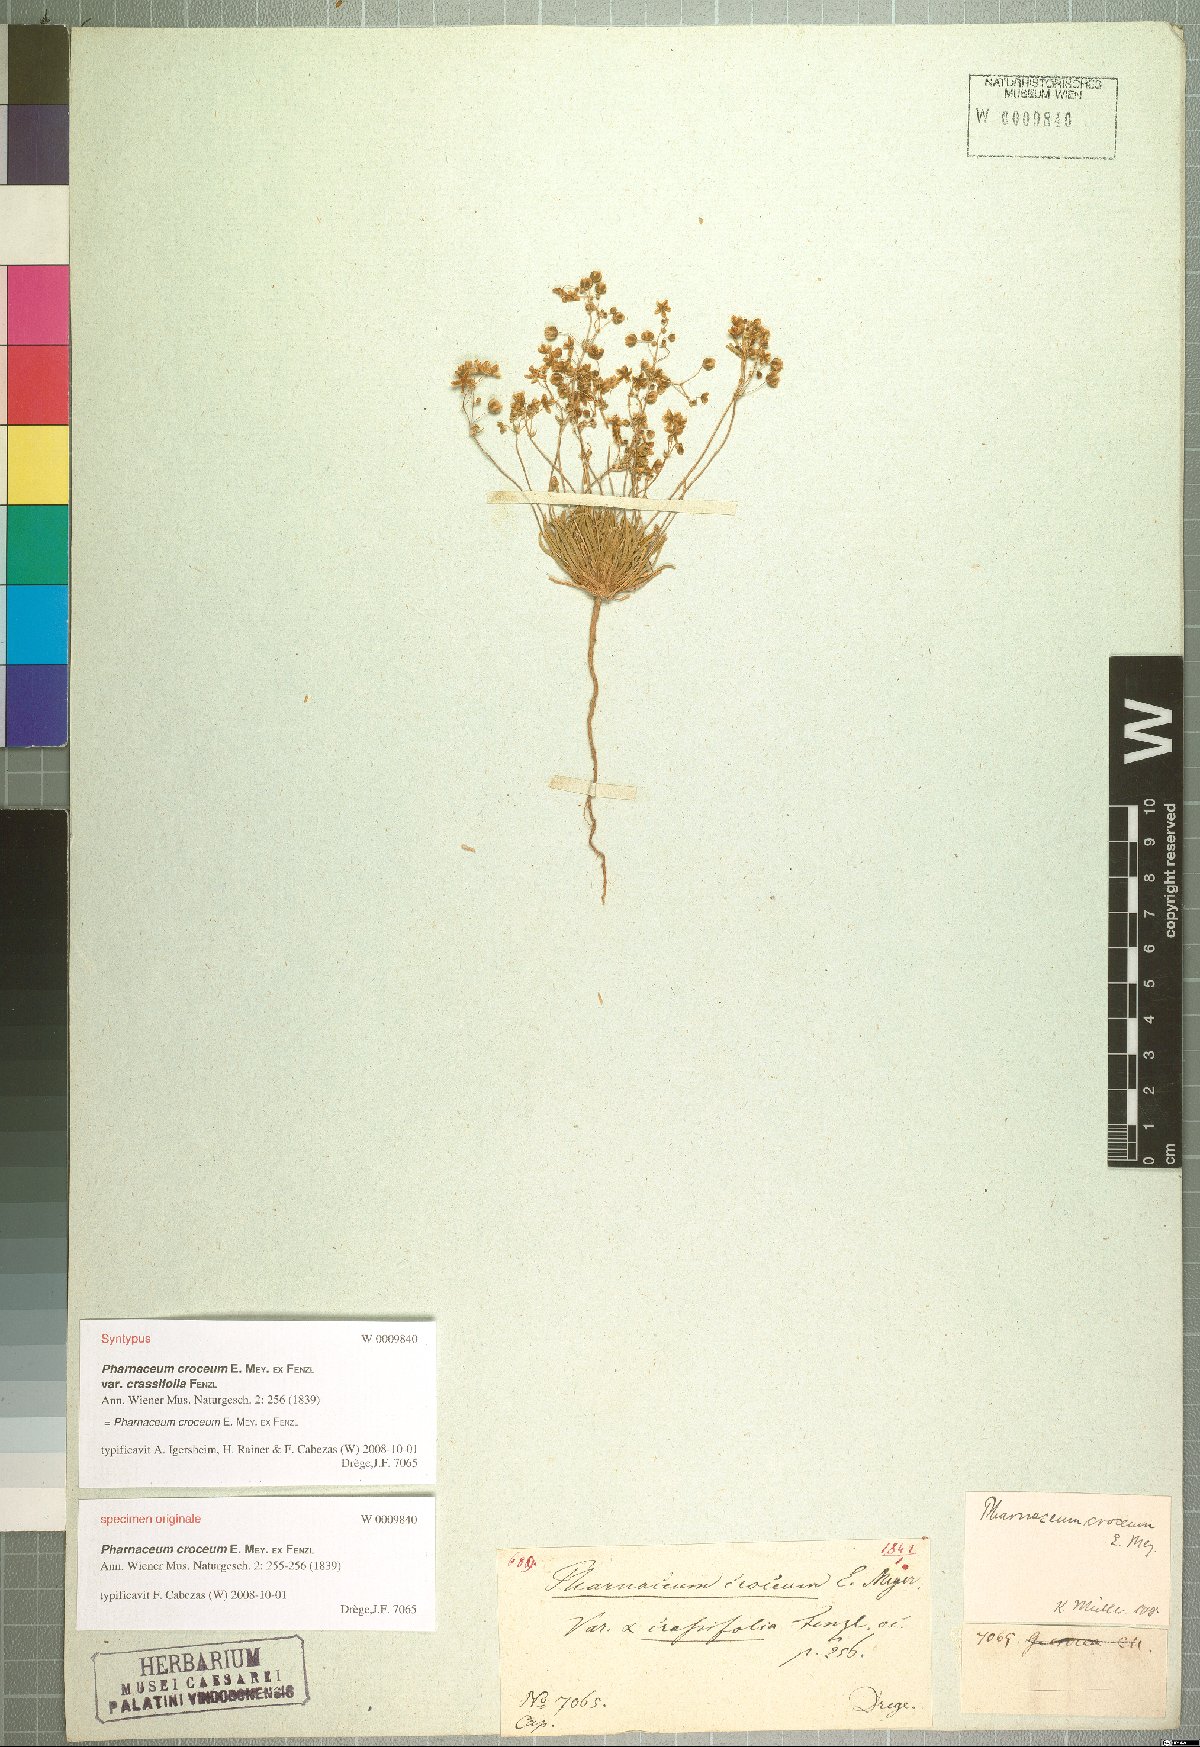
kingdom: Plantae
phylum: Tracheophyta
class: Magnoliopsida
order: Caryophyllales
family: Molluginaceae
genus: Pharnaceum
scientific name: Pharnaceum croceum
